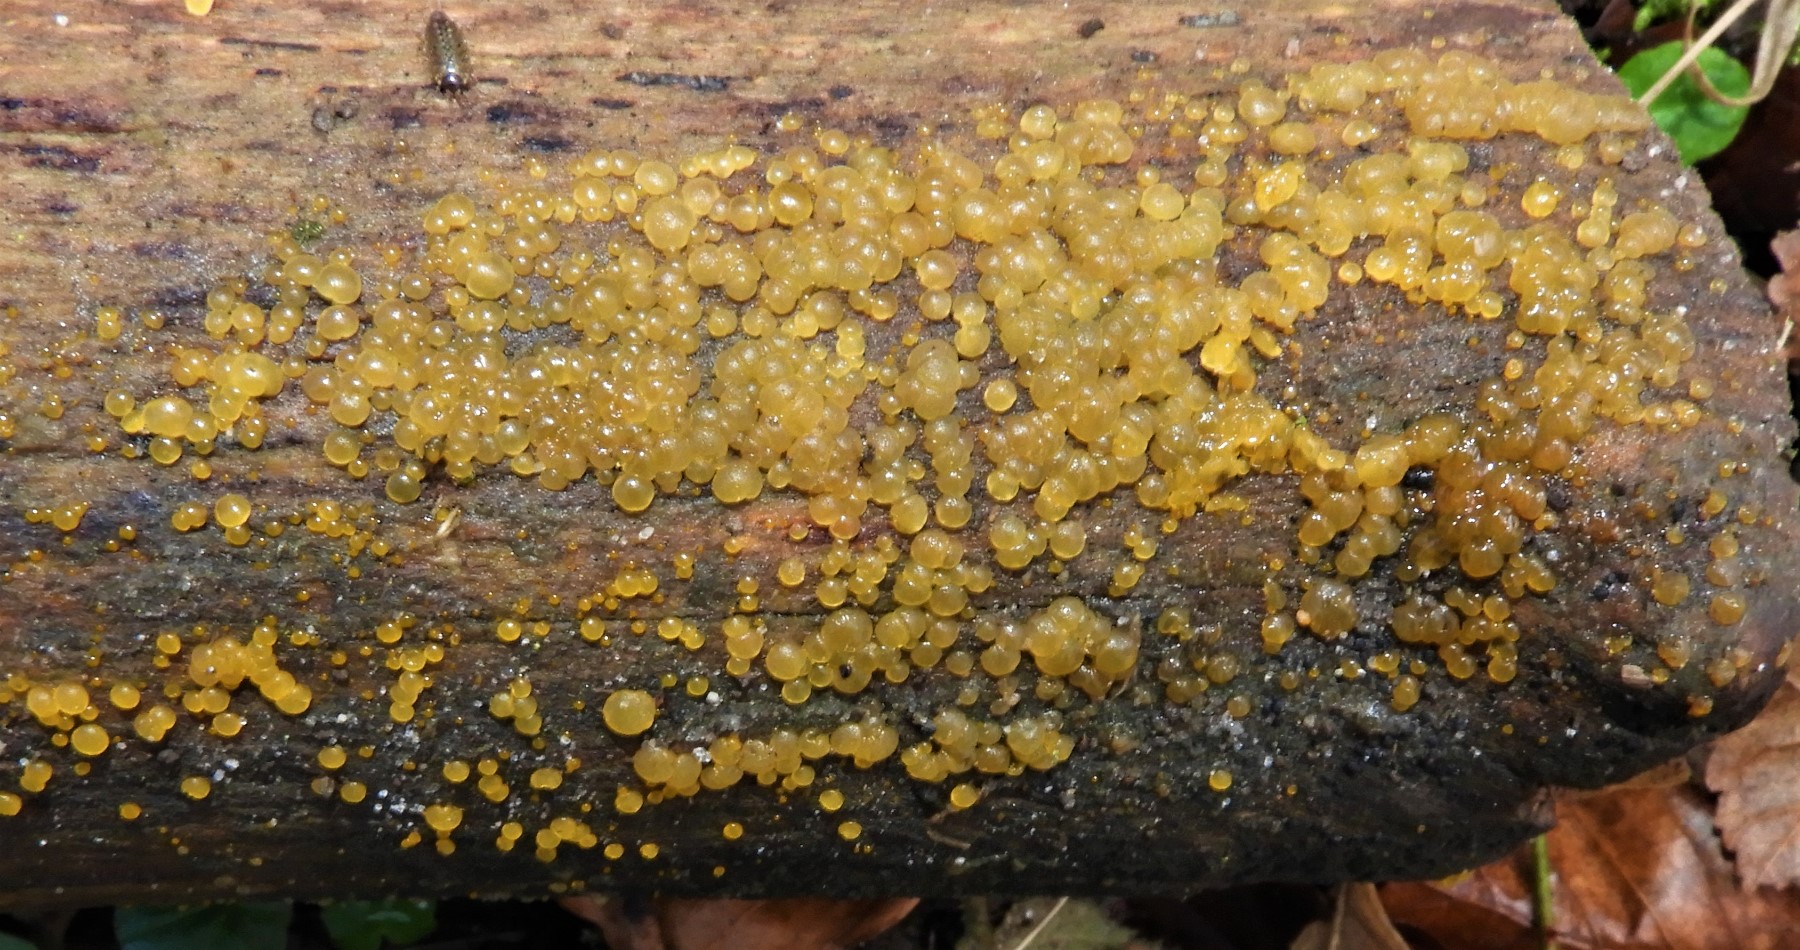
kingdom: Fungi
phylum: Basidiomycota
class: Dacrymycetes
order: Dacrymycetales
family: Dacrymycetaceae
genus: Dacrymyces
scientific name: Dacrymyces
